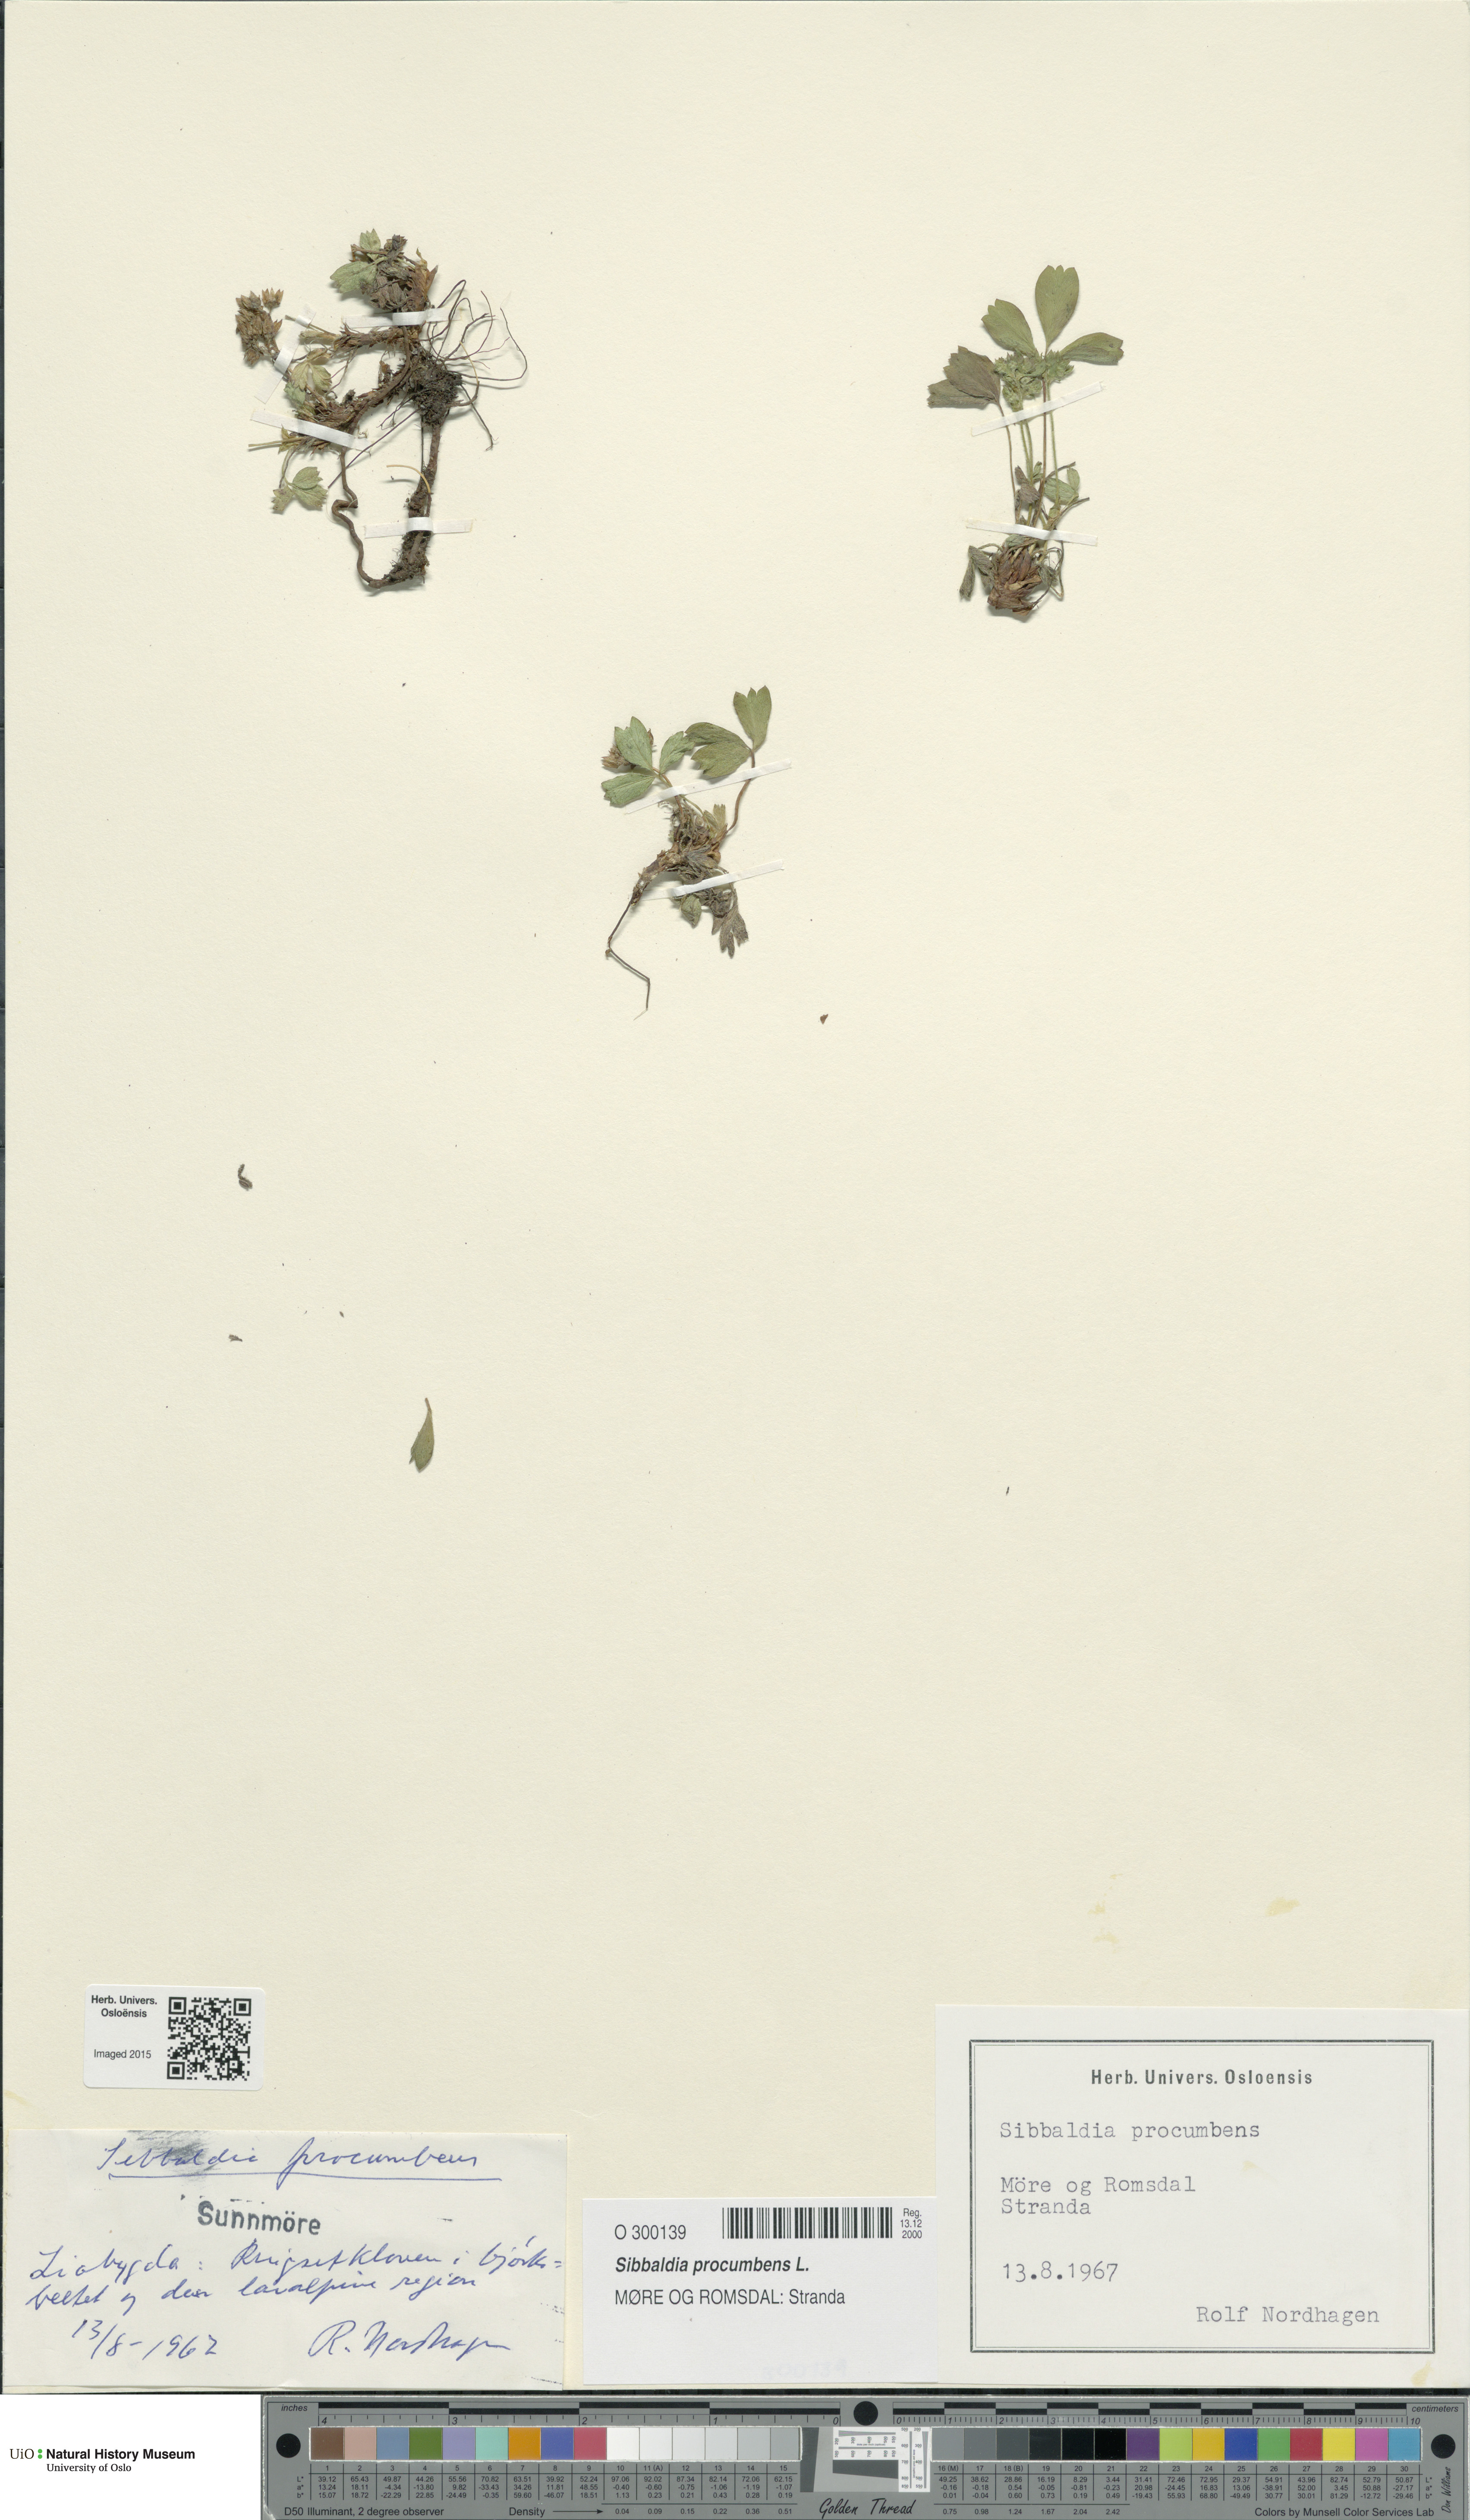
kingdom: Plantae
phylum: Tracheophyta
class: Magnoliopsida
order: Rosales
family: Rosaceae
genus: Sibbaldia
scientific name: Sibbaldia procumbens
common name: Creeping sibbaldia
